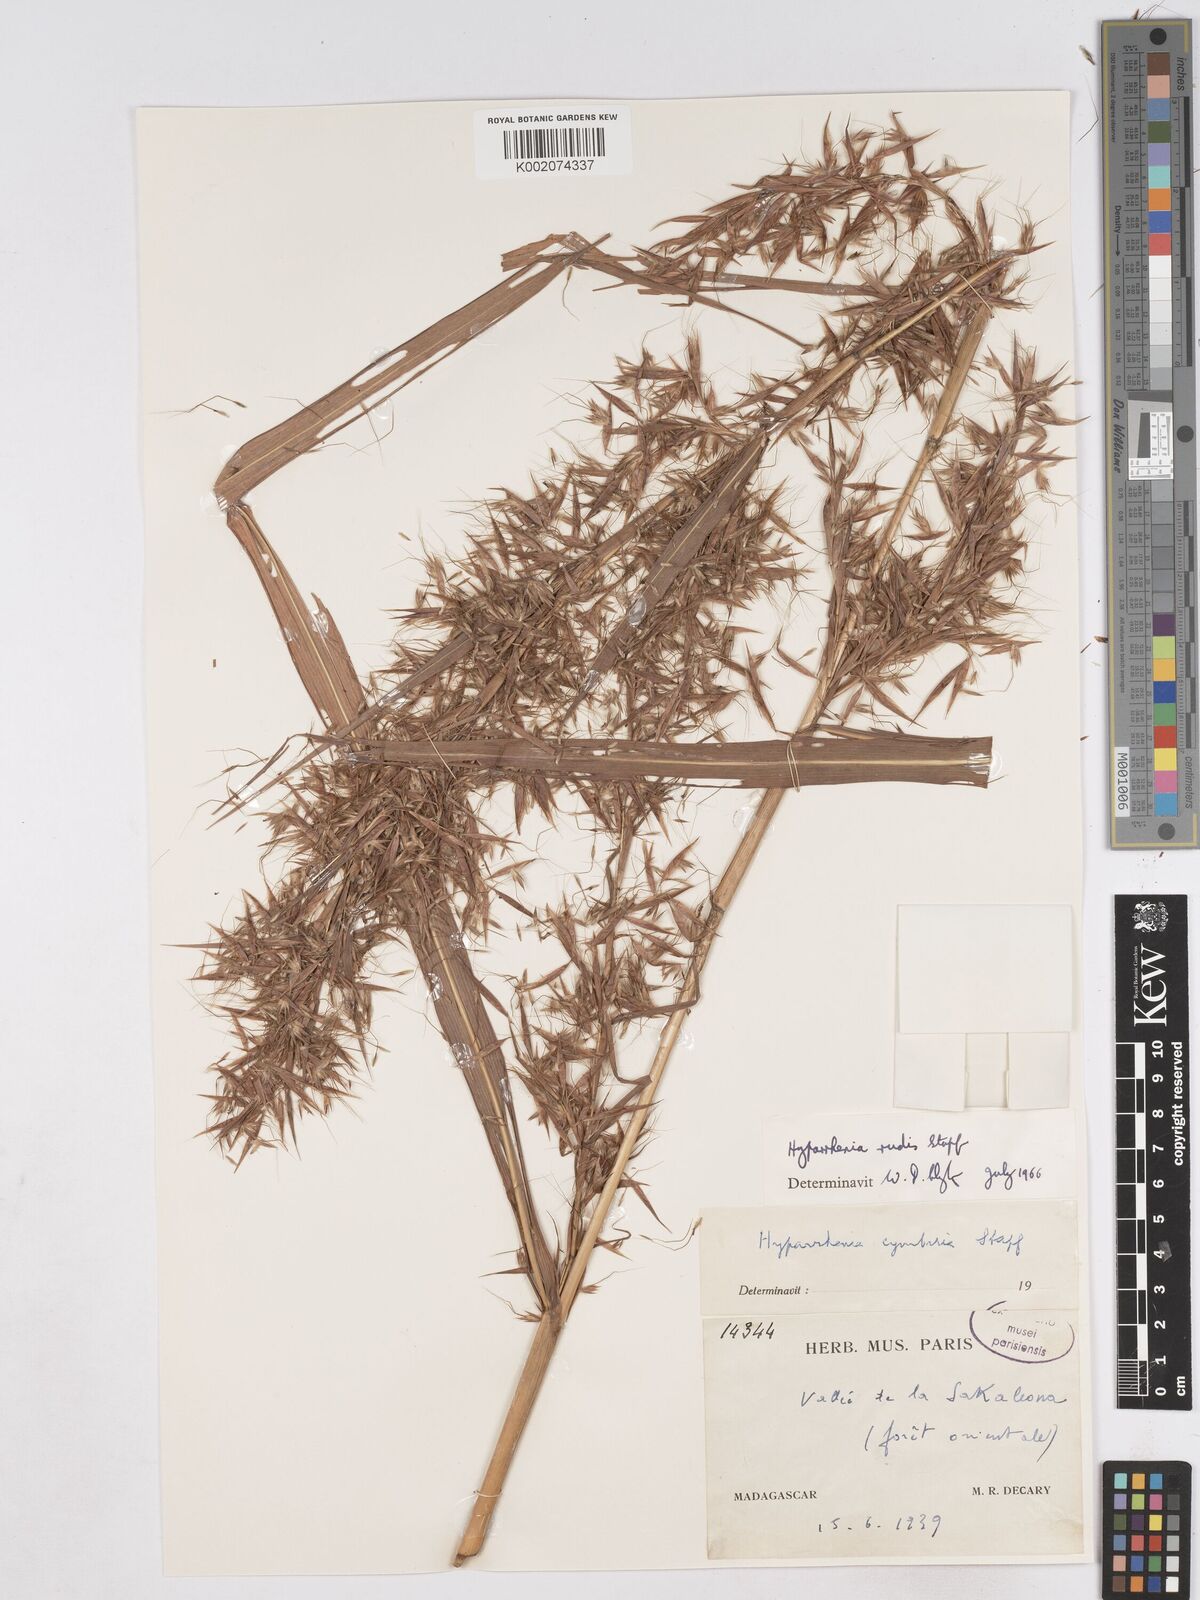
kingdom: Plantae
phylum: Tracheophyta
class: Liliopsida
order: Poales
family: Poaceae
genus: Hyparrhenia
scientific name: Hyparrhenia rudis
